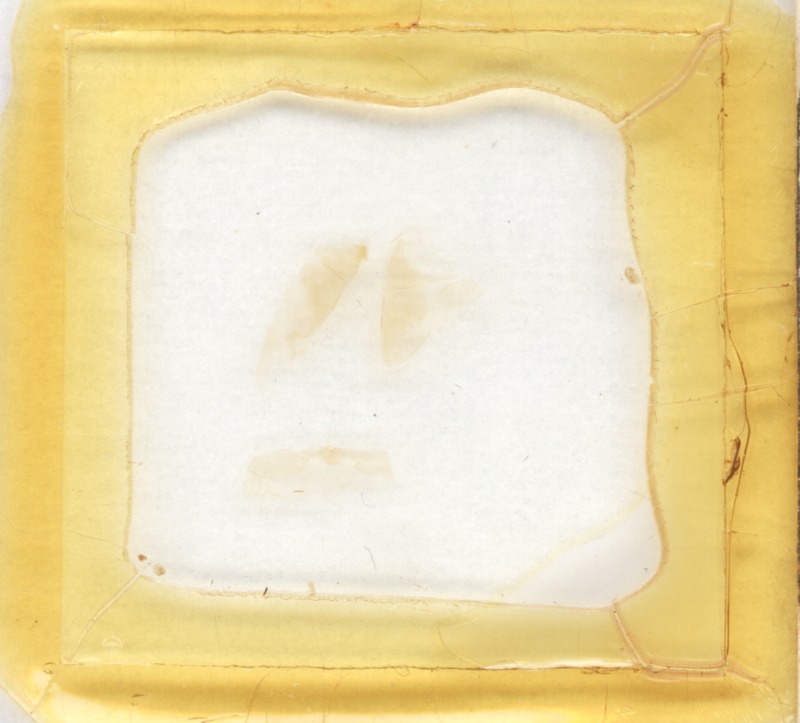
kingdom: Animalia
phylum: Arthropoda
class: Diplopoda
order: Glomerida
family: Glomeridae
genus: Onychoglomeris
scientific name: Onychoglomeris castanea
